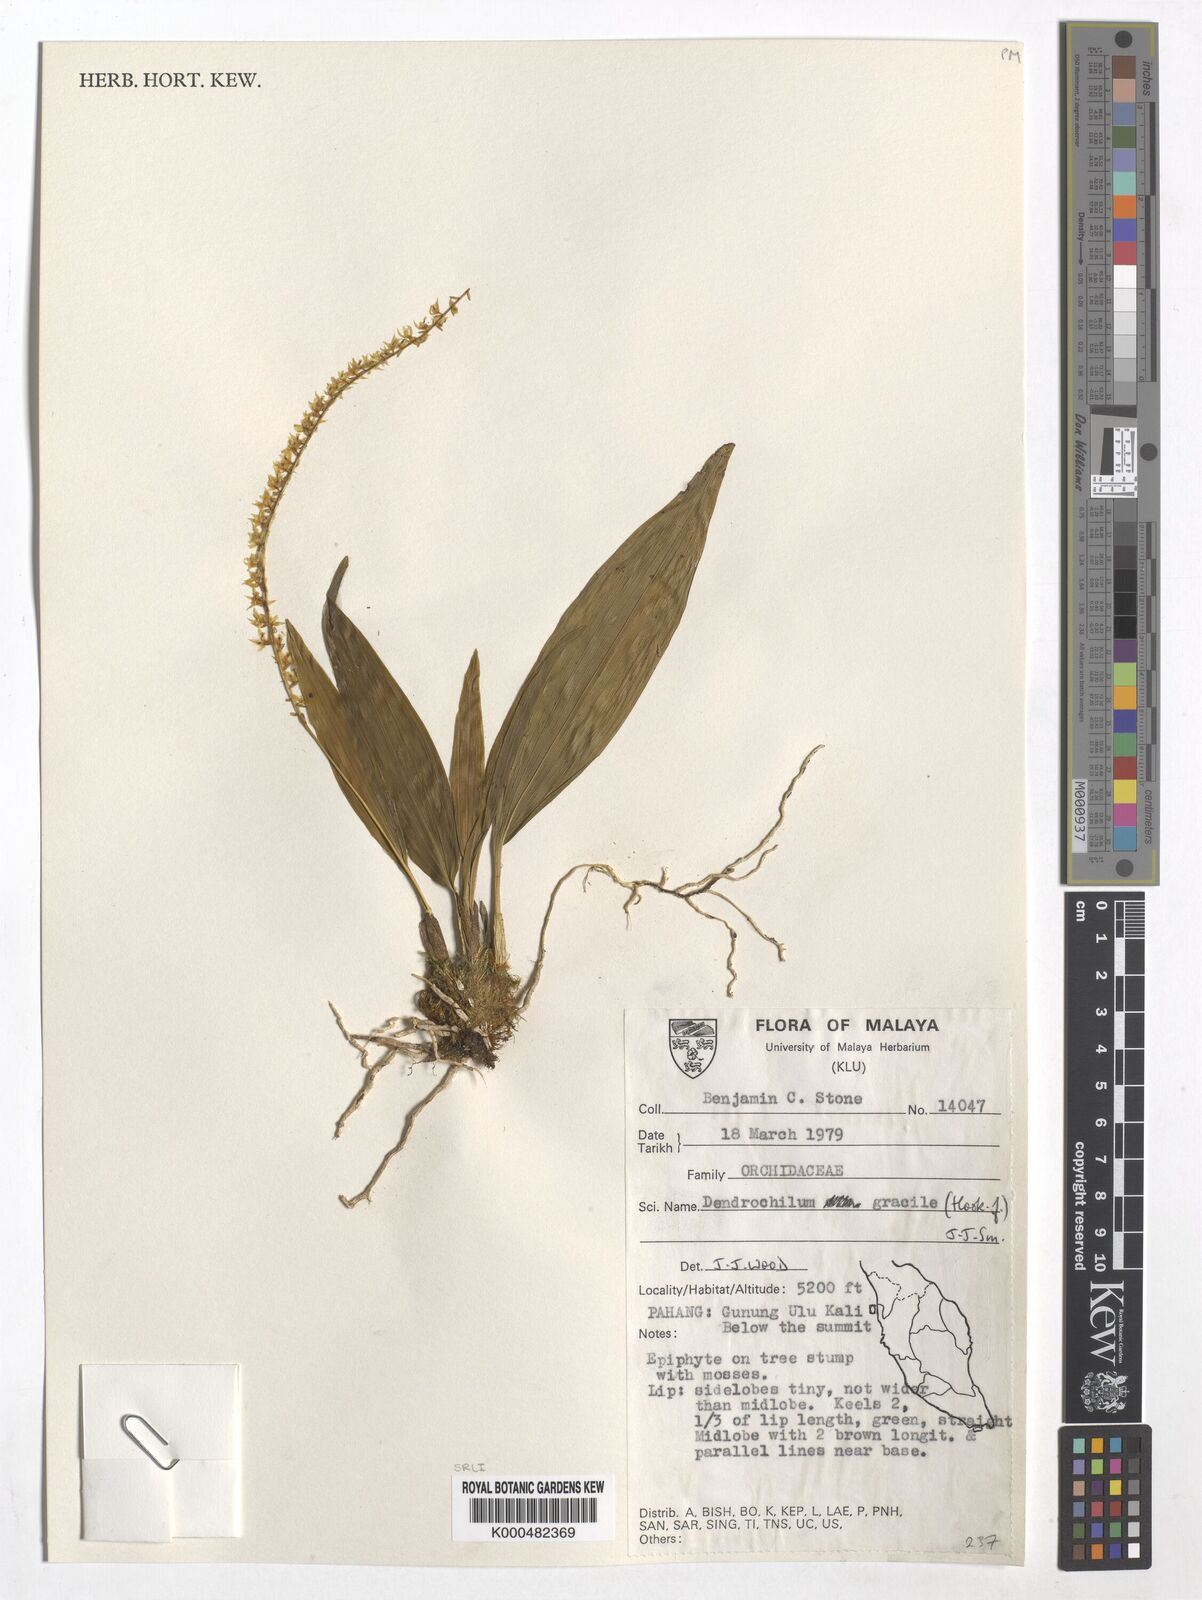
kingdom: Plantae
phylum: Tracheophyta
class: Liliopsida
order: Asparagales
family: Orchidaceae
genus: Coelogyne
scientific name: Coelogyne gracilis
